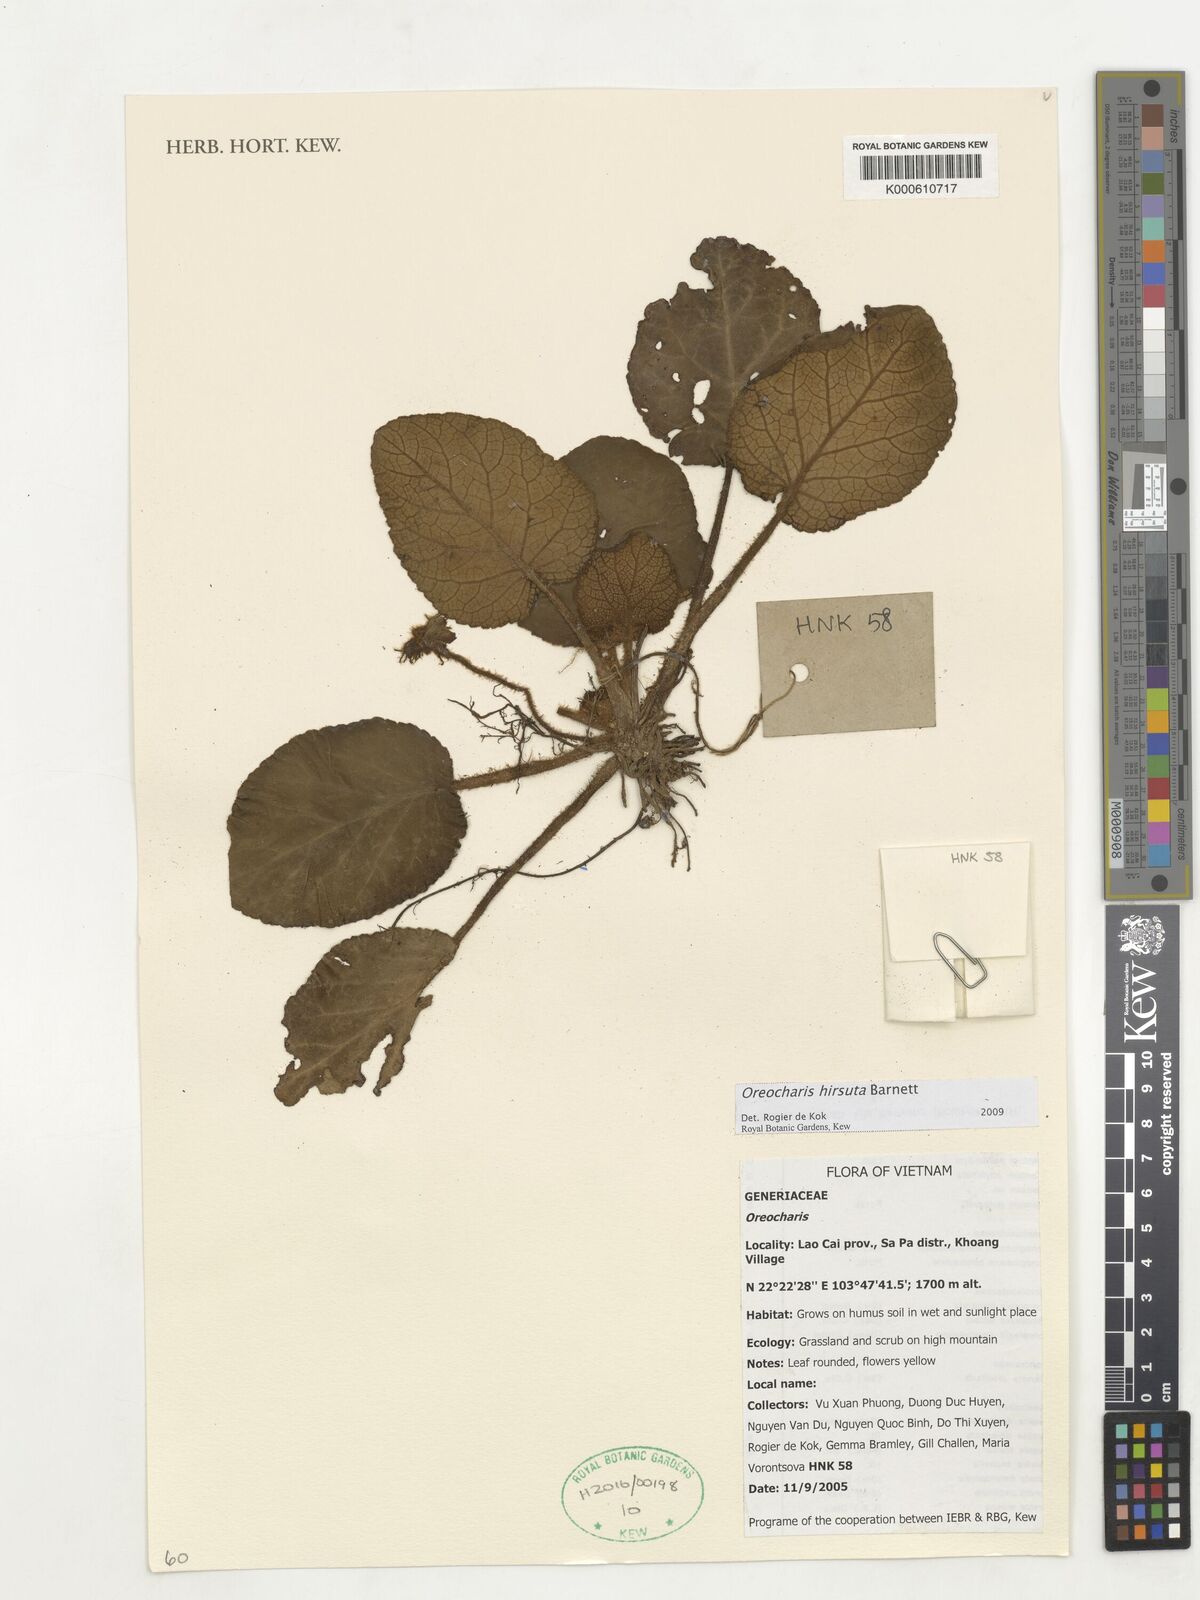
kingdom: Plantae
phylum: Tracheophyta
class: Magnoliopsida
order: Lamiales
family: Gesneriaceae
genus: Oreocharis
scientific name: Oreocharis hirsuta
